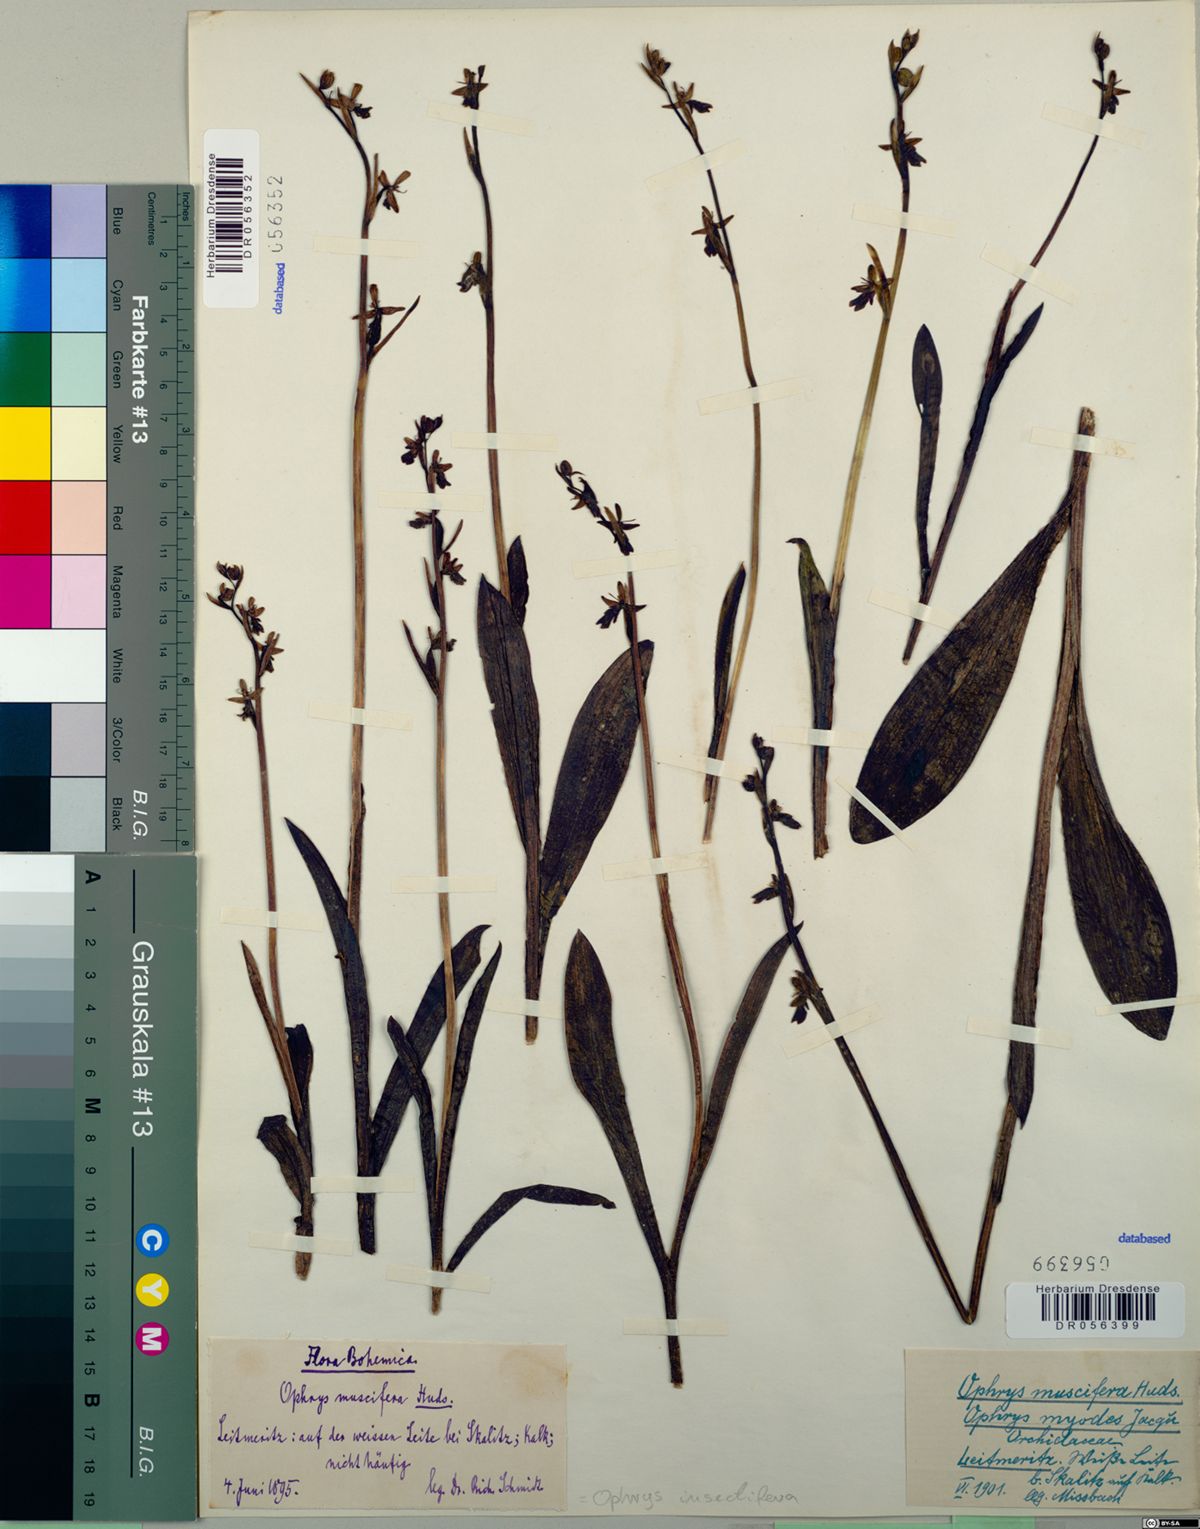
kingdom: Plantae
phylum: Tracheophyta
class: Liliopsida
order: Asparagales
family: Orchidaceae
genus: Ophrys
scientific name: Ophrys insectifera
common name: Fly orchid
